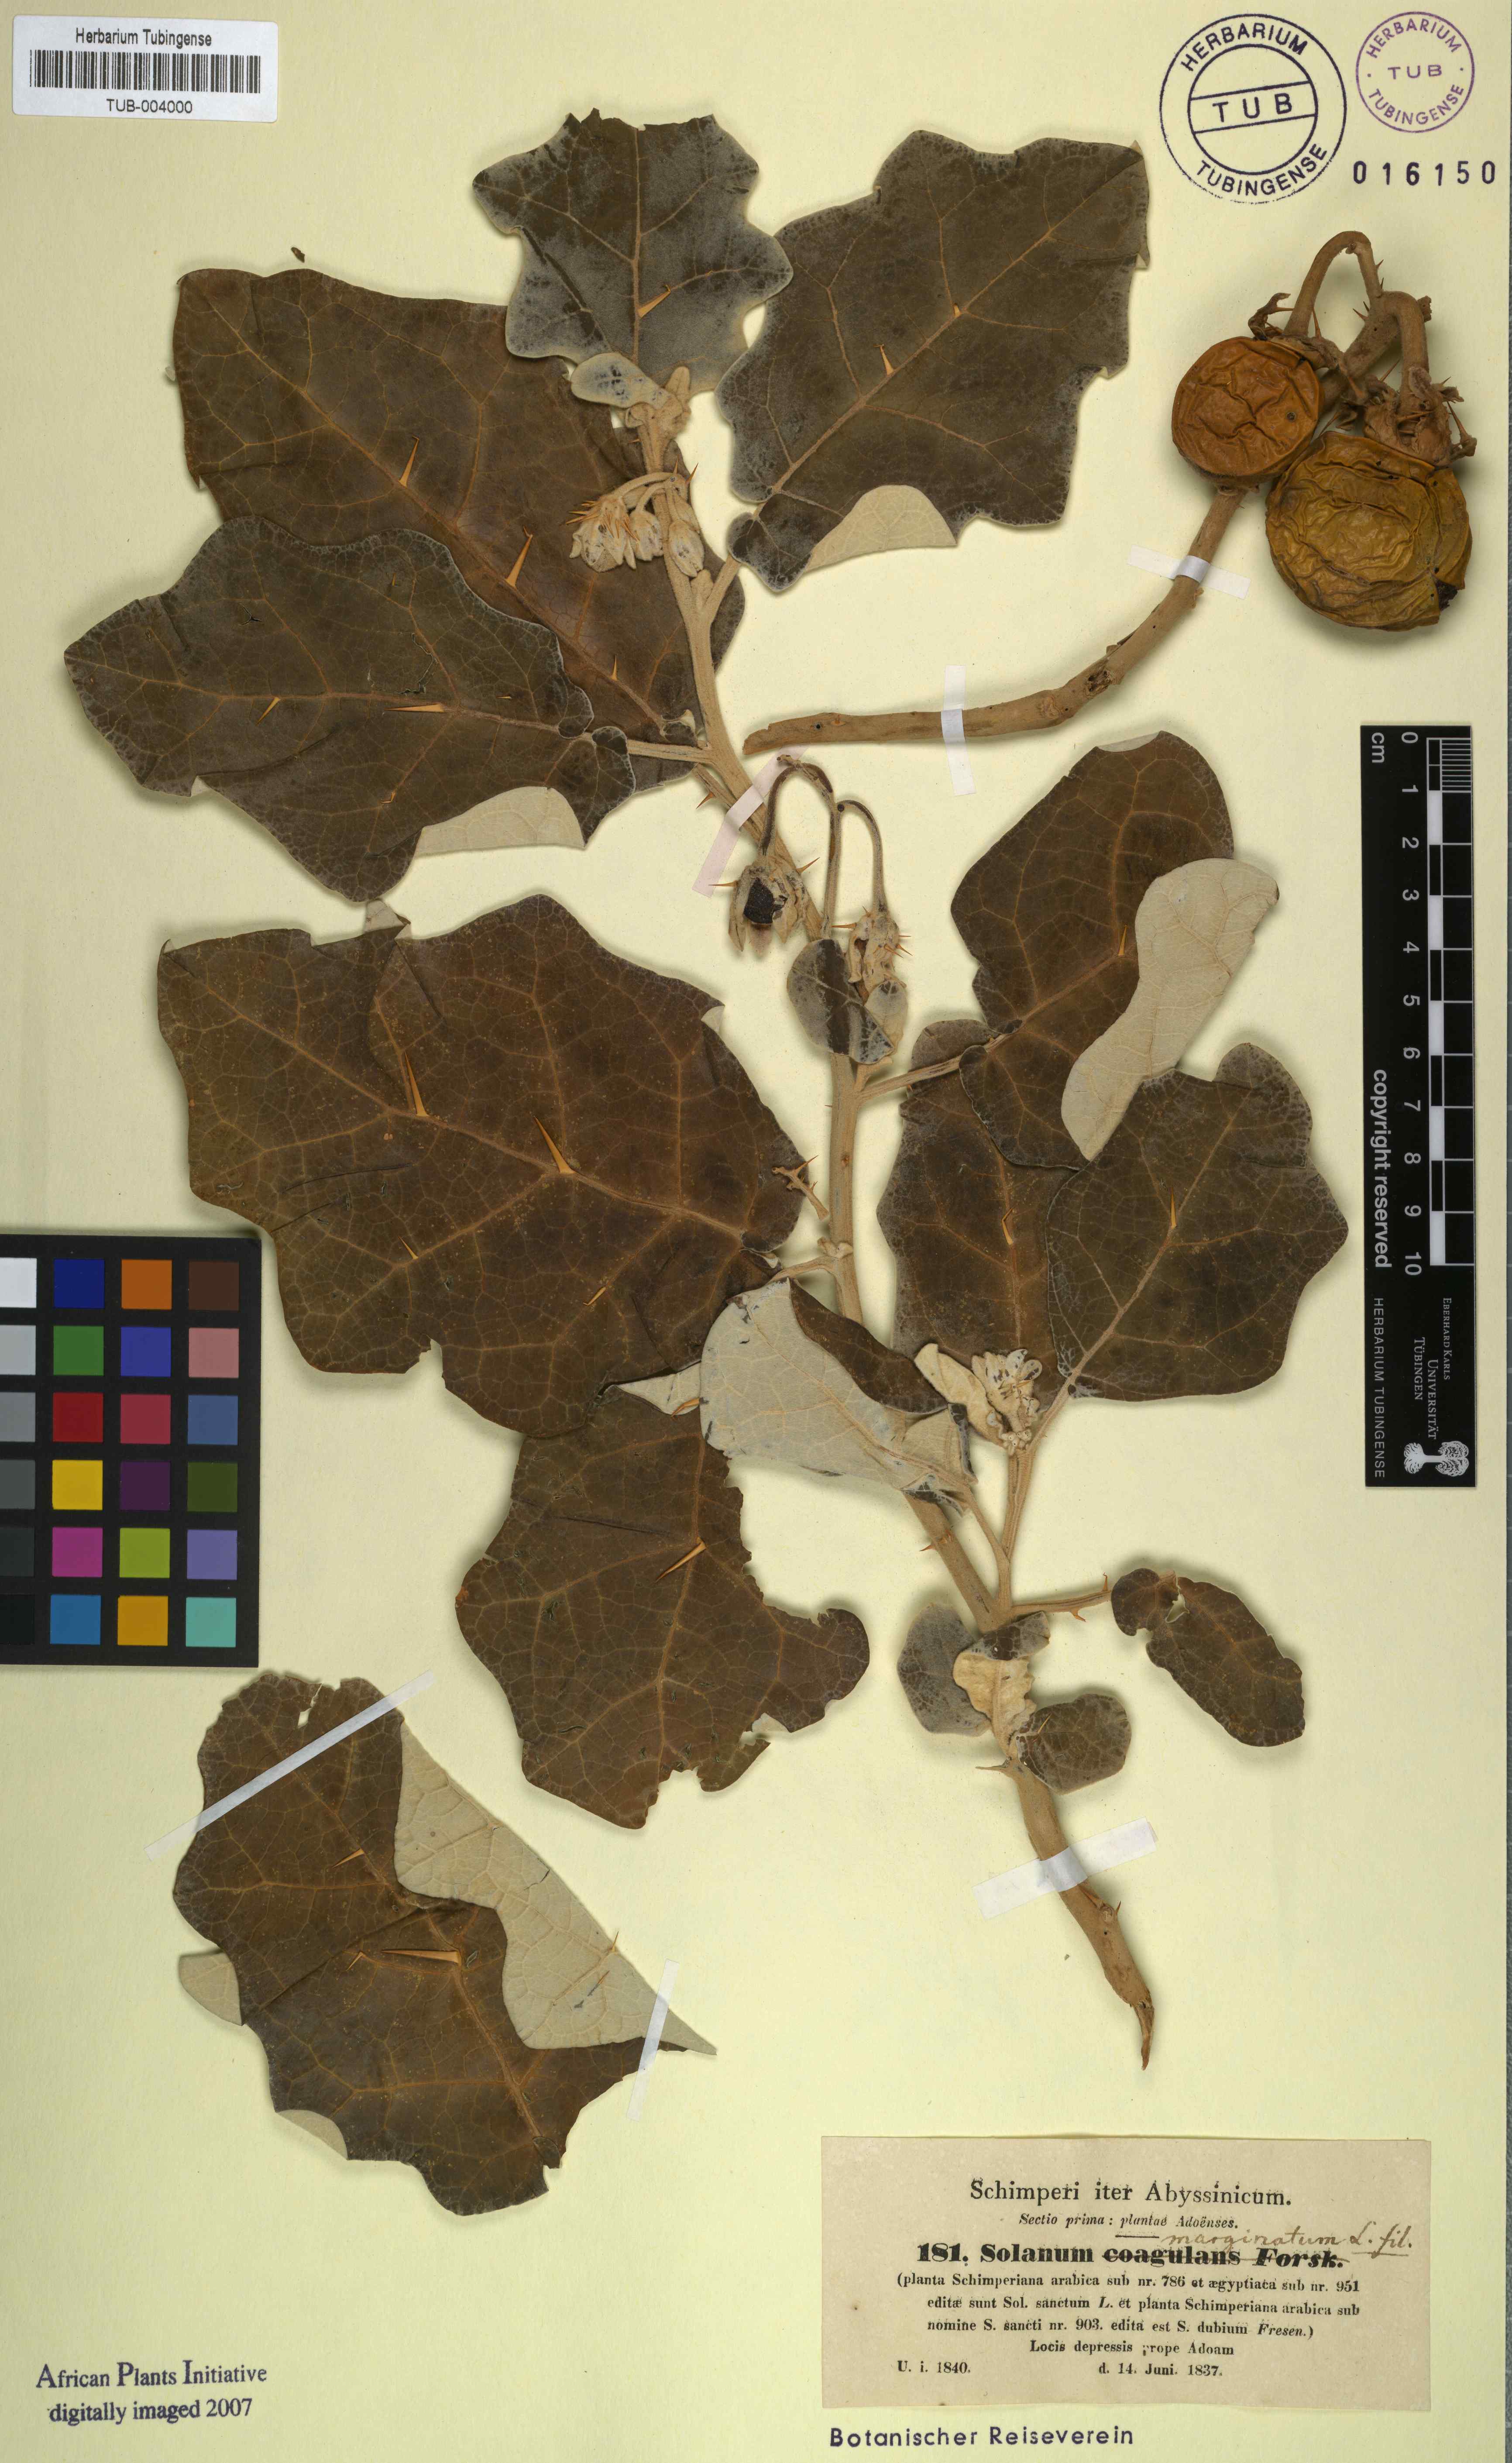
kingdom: Plantae
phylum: Tracheophyta
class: Magnoliopsida
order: Solanales
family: Solanaceae
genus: Solanum
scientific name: Solanum marginatum
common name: Purple african nightshade
